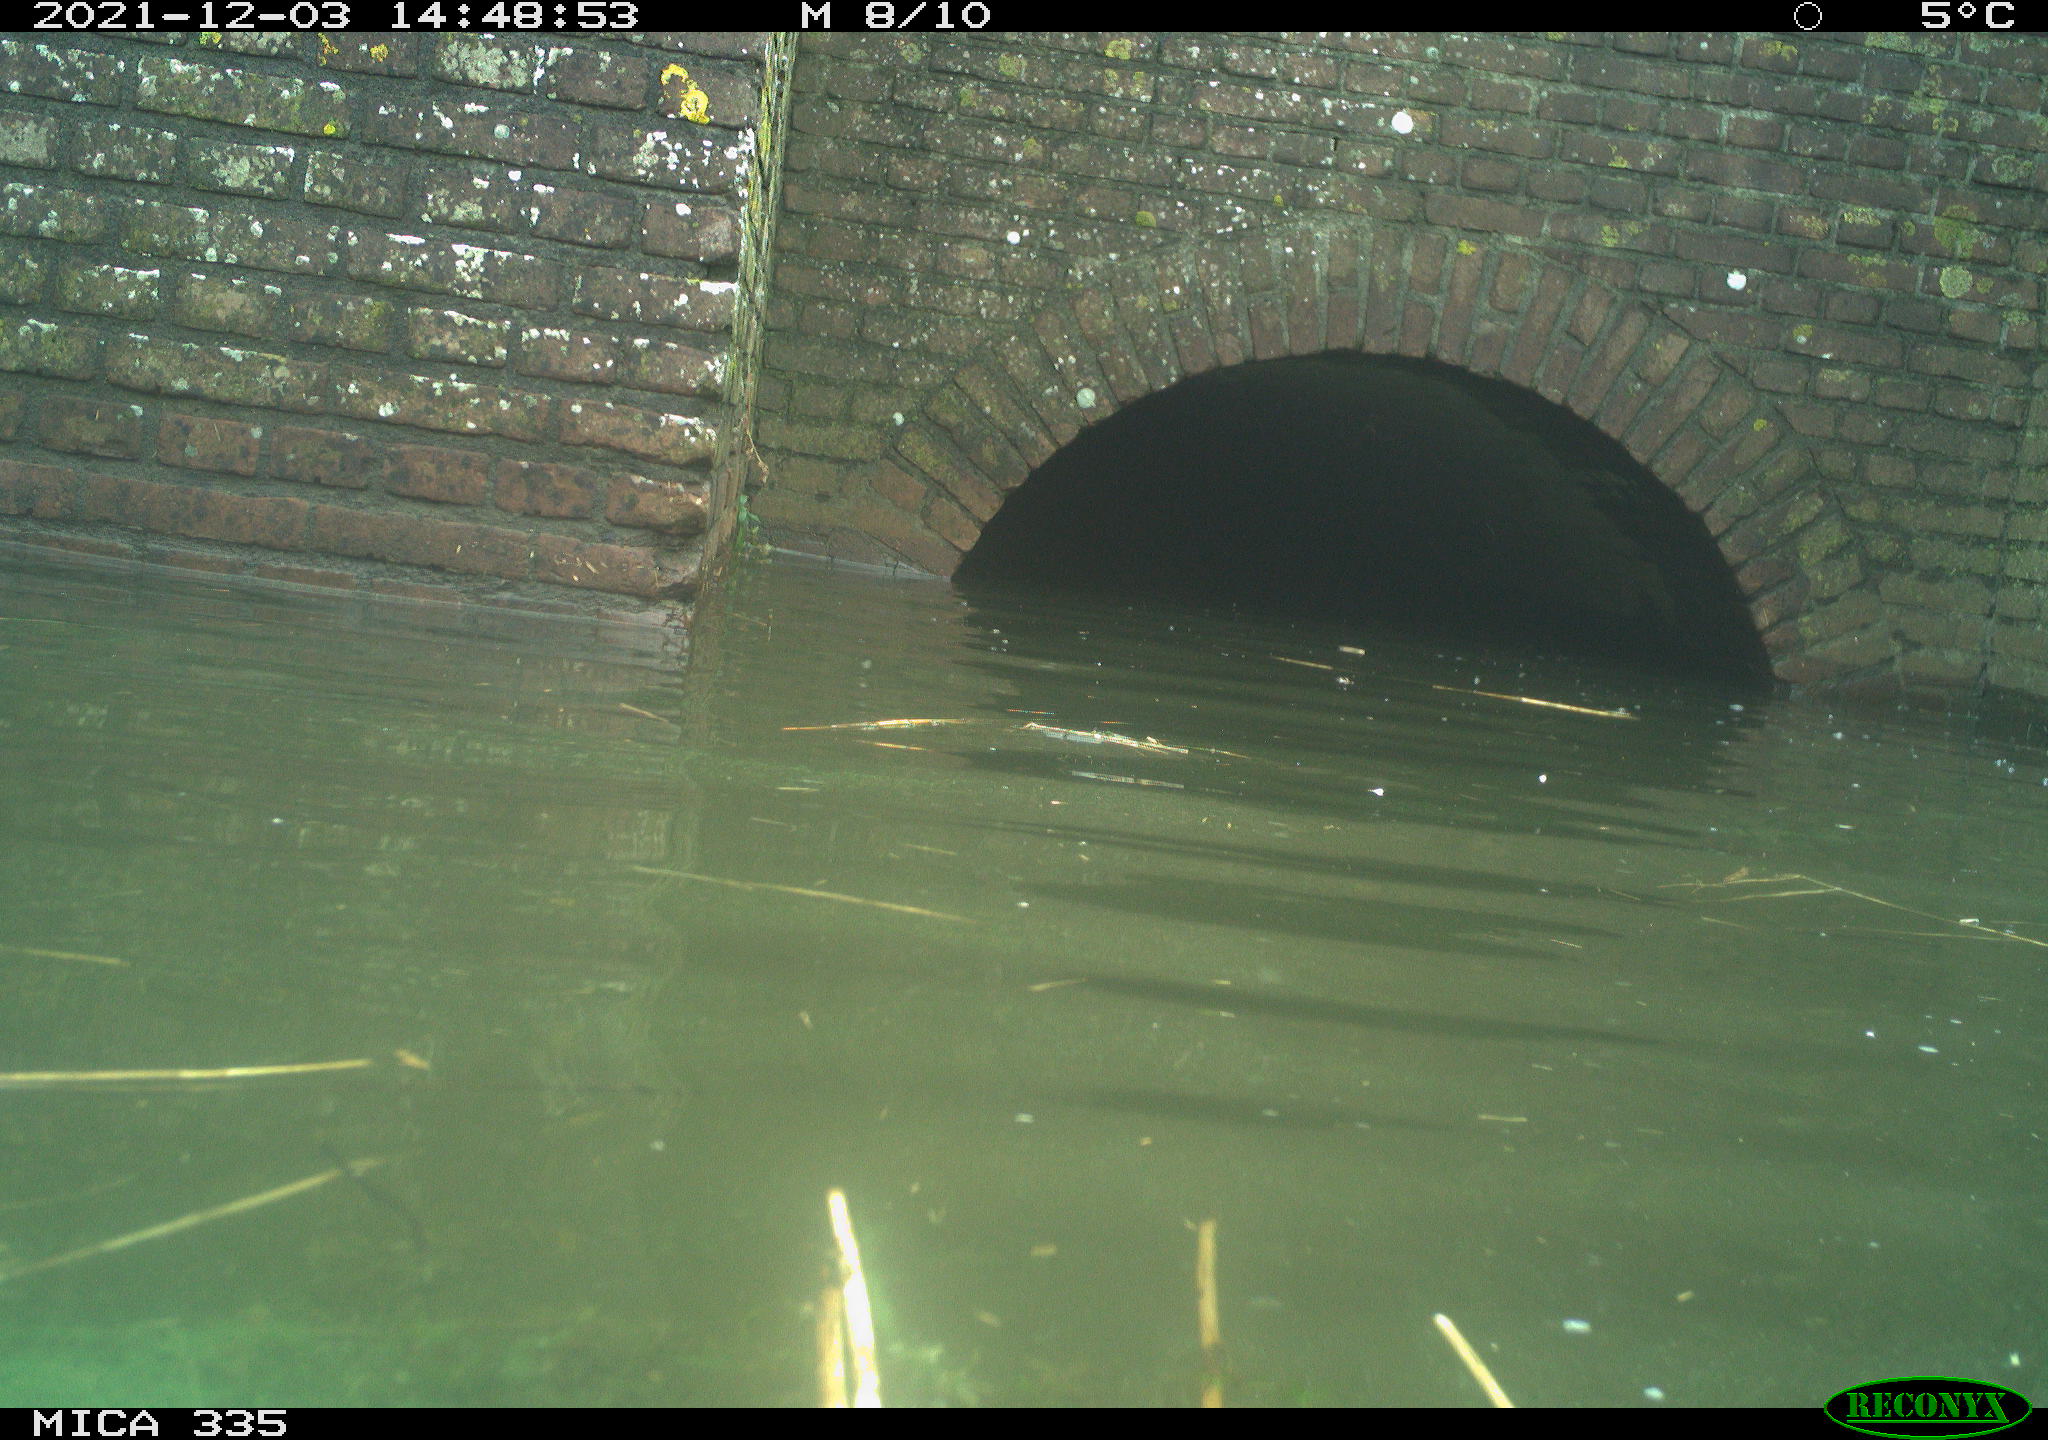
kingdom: Animalia
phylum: Chordata
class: Aves
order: Gruiformes
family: Rallidae
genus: Fulica
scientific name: Fulica atra
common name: Eurasian coot
